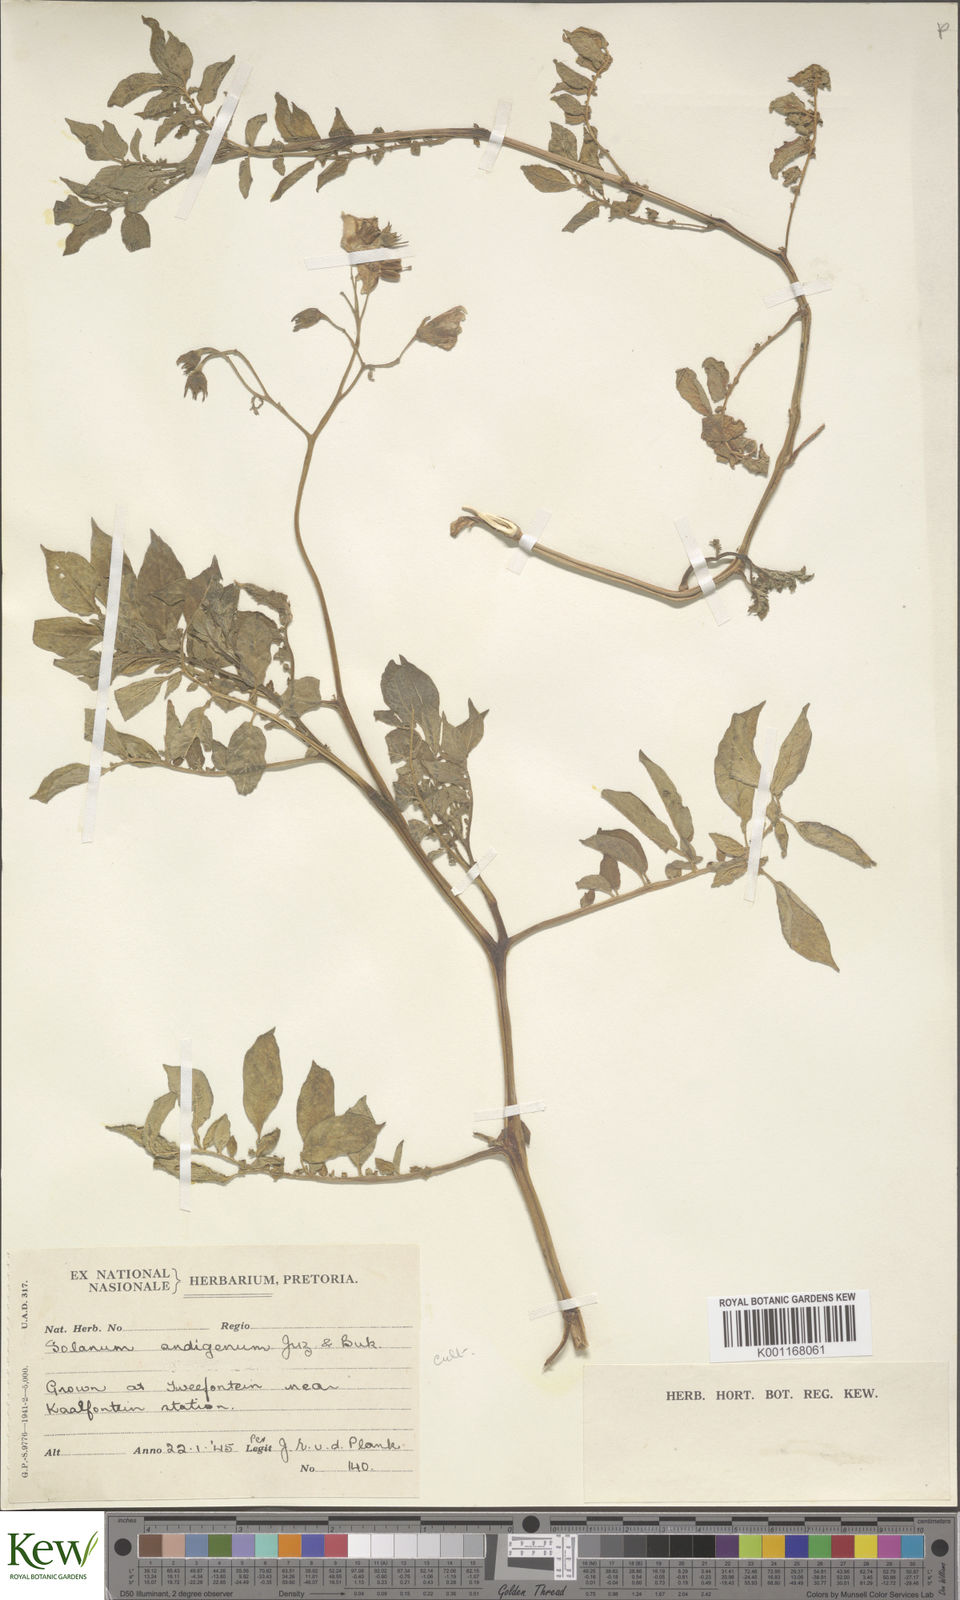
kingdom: Plantae
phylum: Tracheophyta
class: Magnoliopsida
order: Solanales
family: Solanaceae
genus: Solanum
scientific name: Solanum tuberosum
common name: Potato
